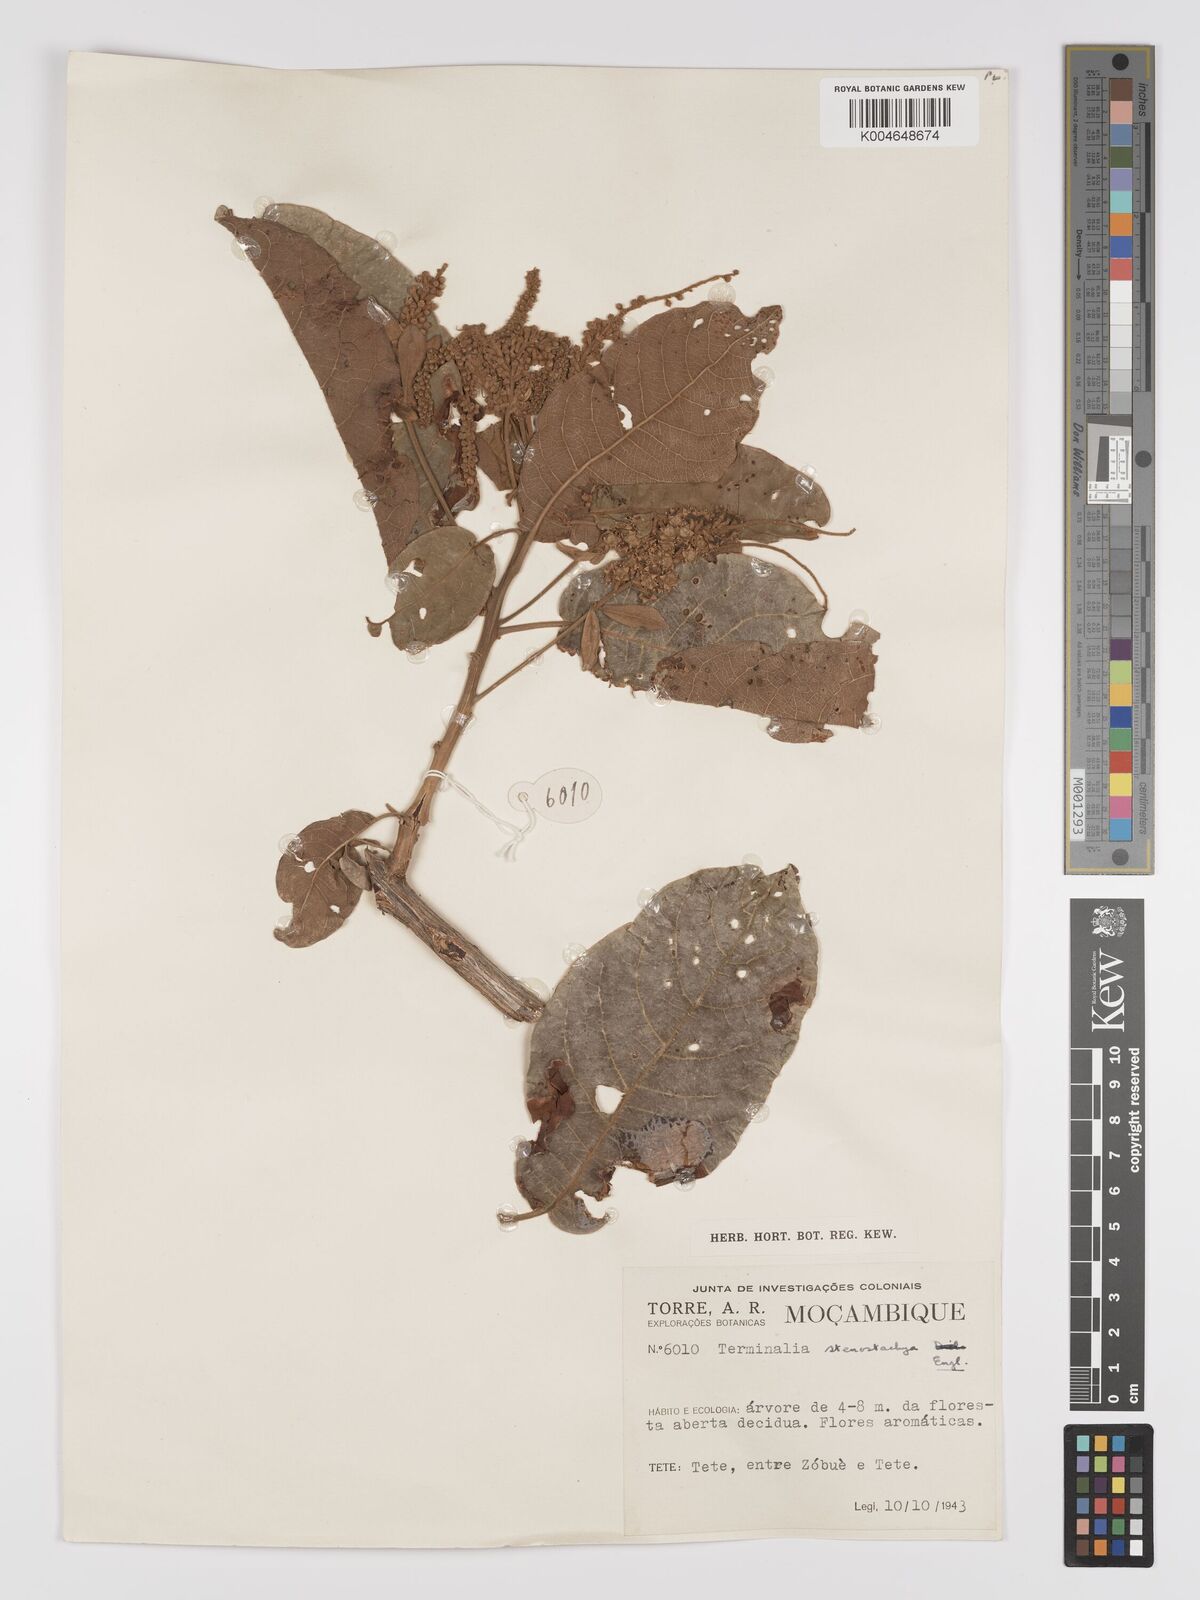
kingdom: Plantae
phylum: Tracheophyta
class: Magnoliopsida
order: Myrtales
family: Combretaceae
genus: Terminalia
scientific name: Terminalia stenostachya
